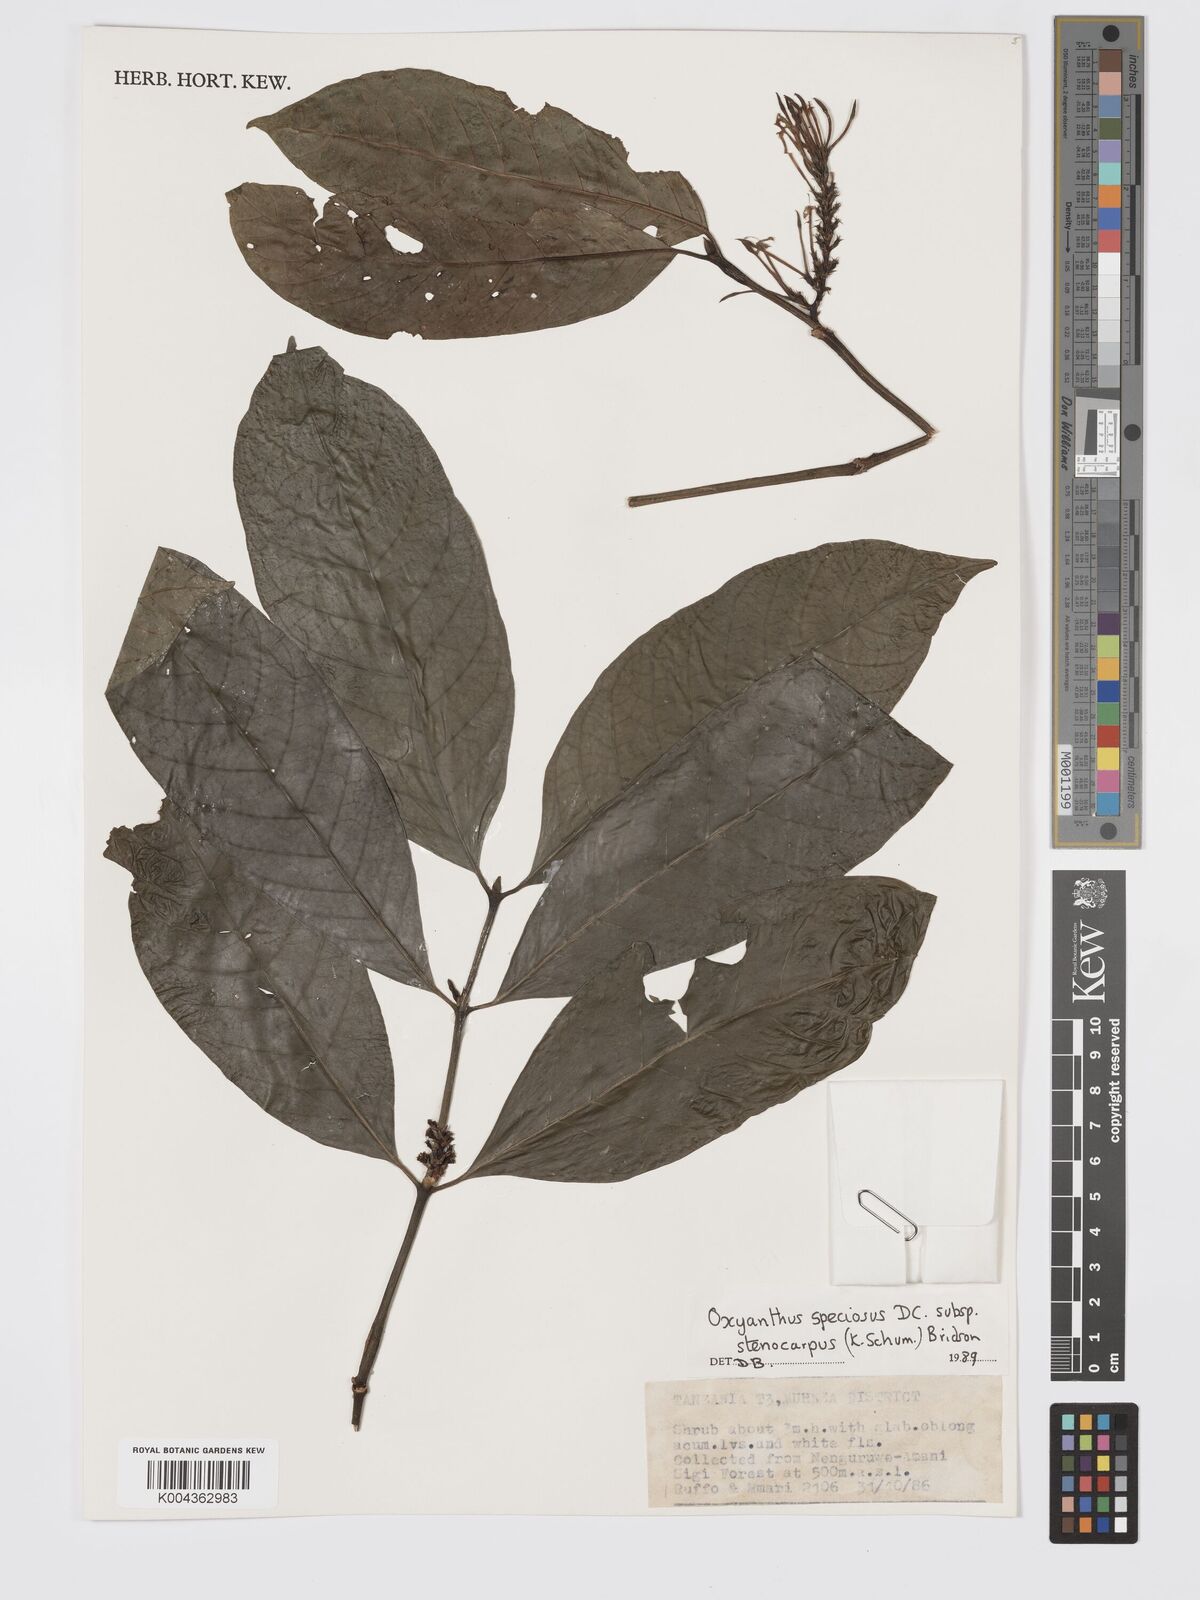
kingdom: Plantae
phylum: Tracheophyta
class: Magnoliopsida
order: Gentianales
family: Rubiaceae
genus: Oxyanthus
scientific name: Oxyanthus speciosus
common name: Whipstick loquat
